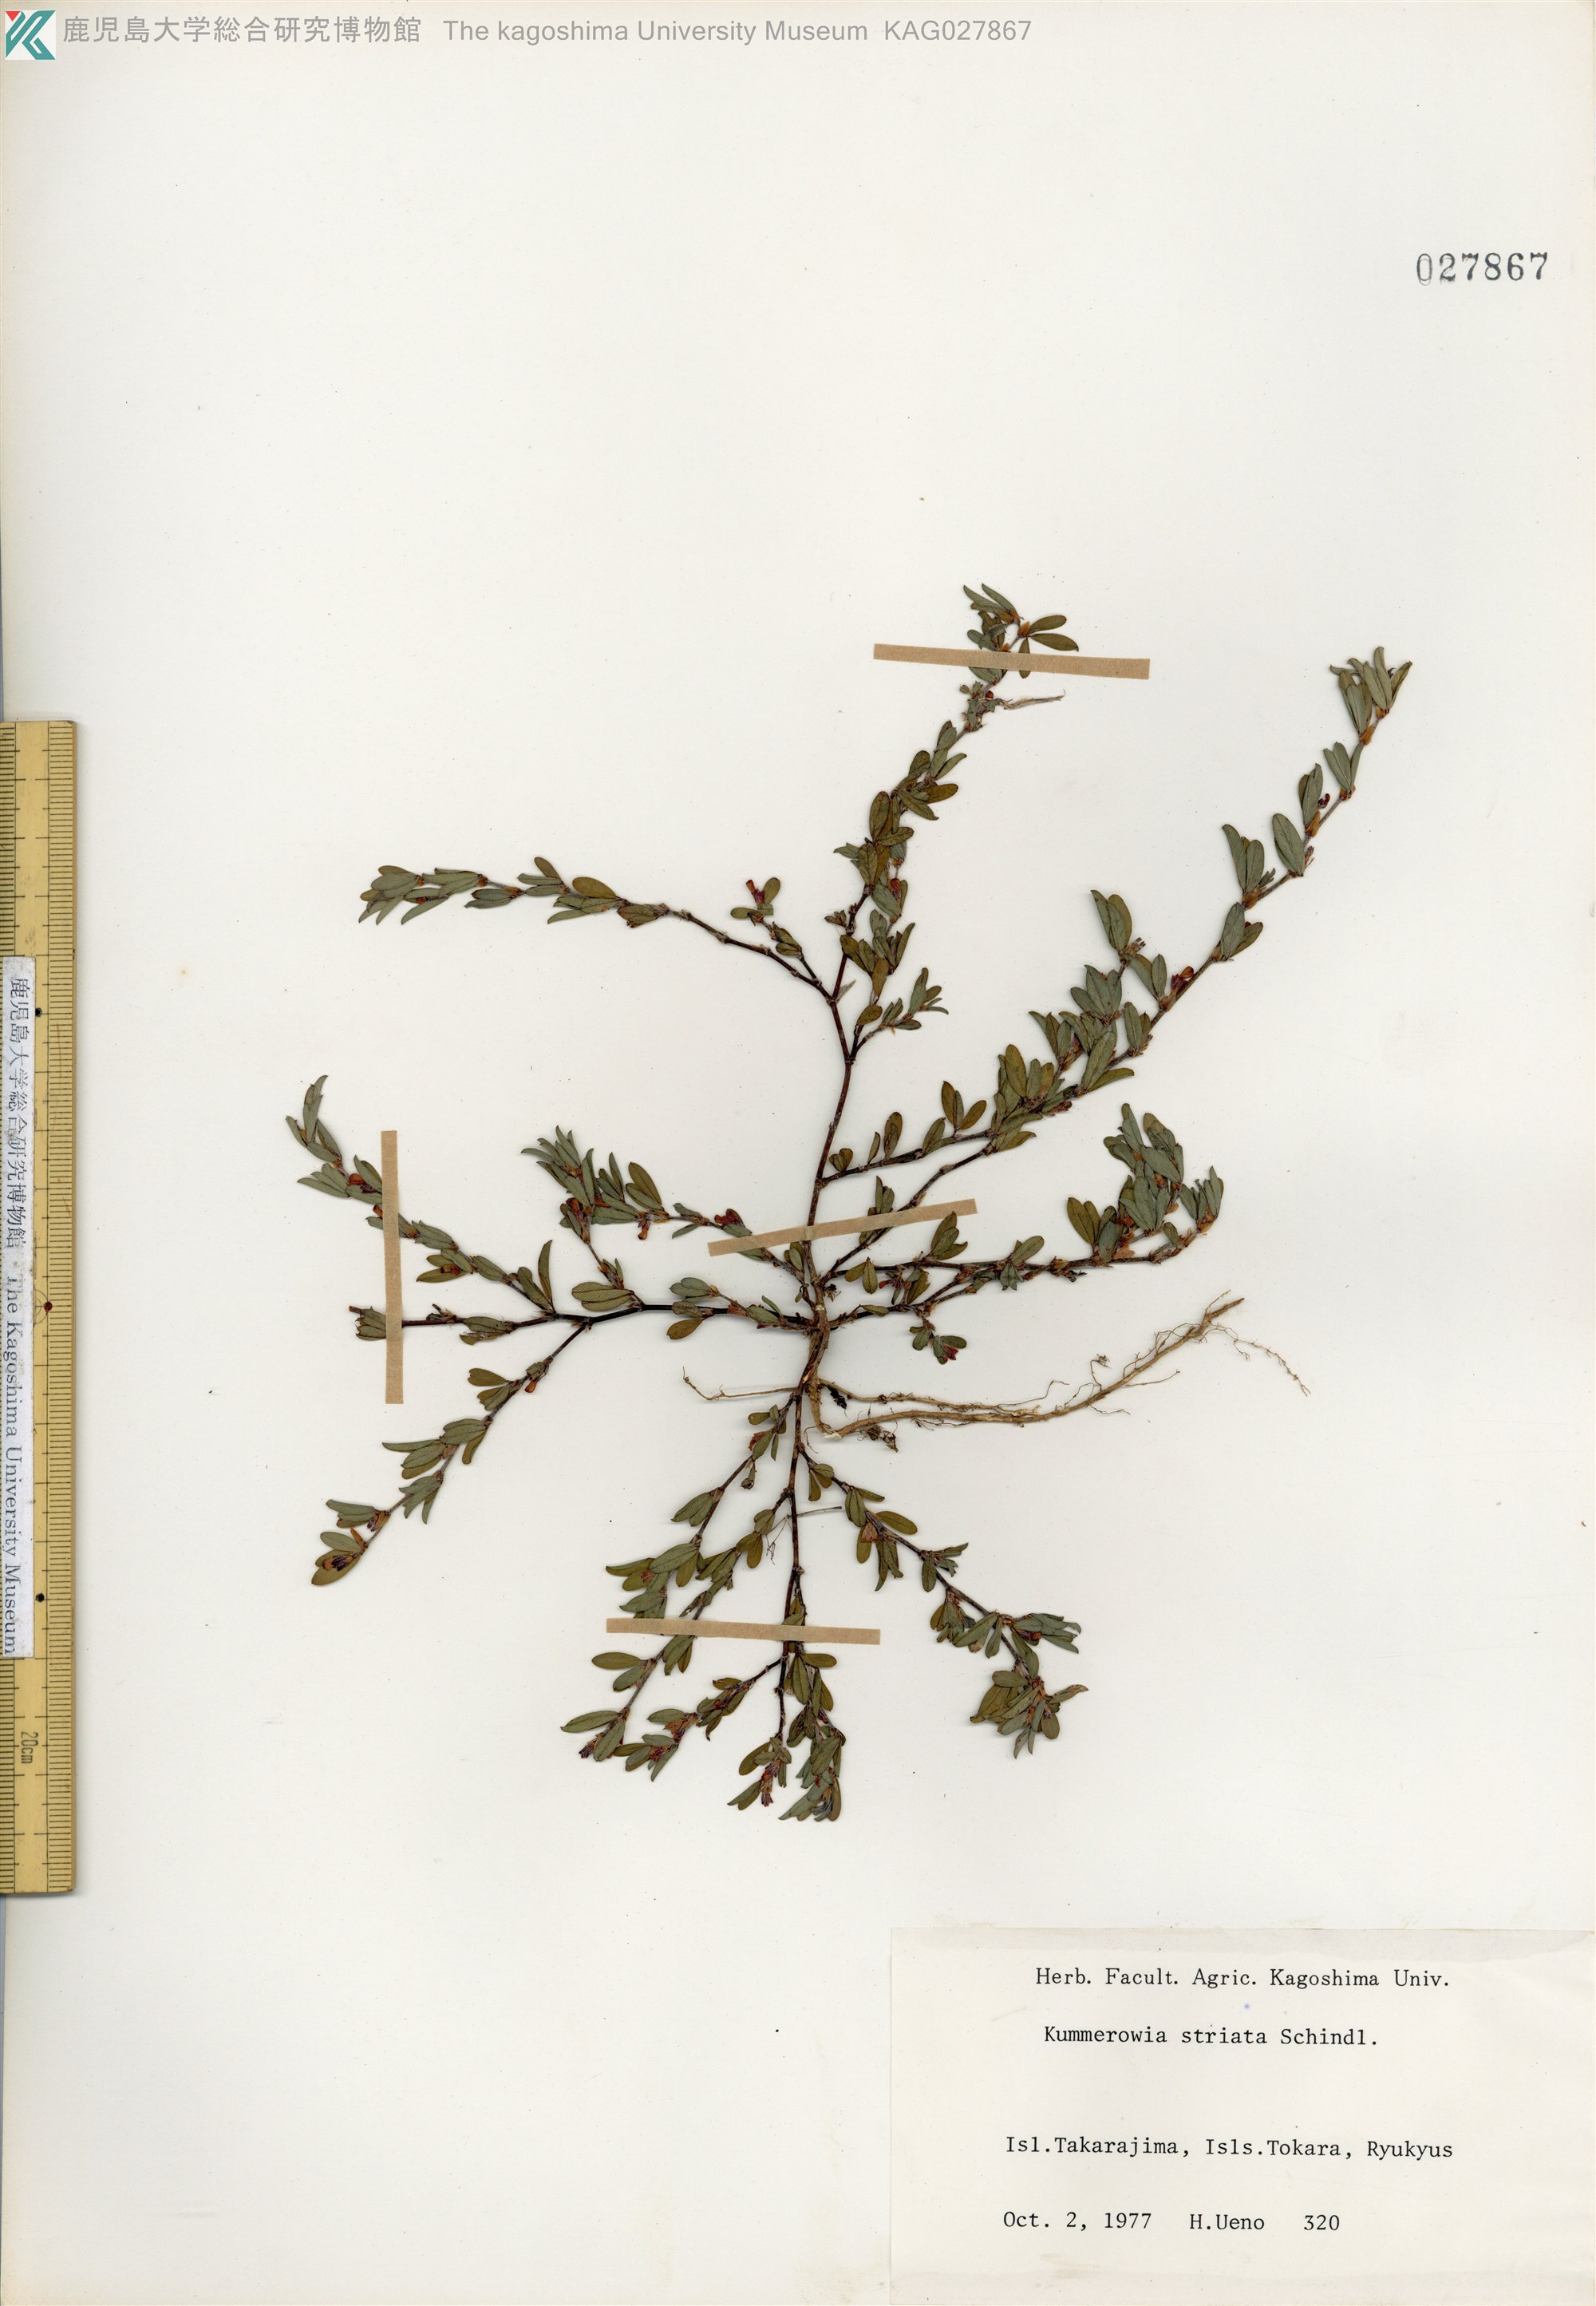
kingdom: Plantae
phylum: Tracheophyta
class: Magnoliopsida
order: Fabales
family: Fabaceae
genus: Kummerowia
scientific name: Kummerowia striata
